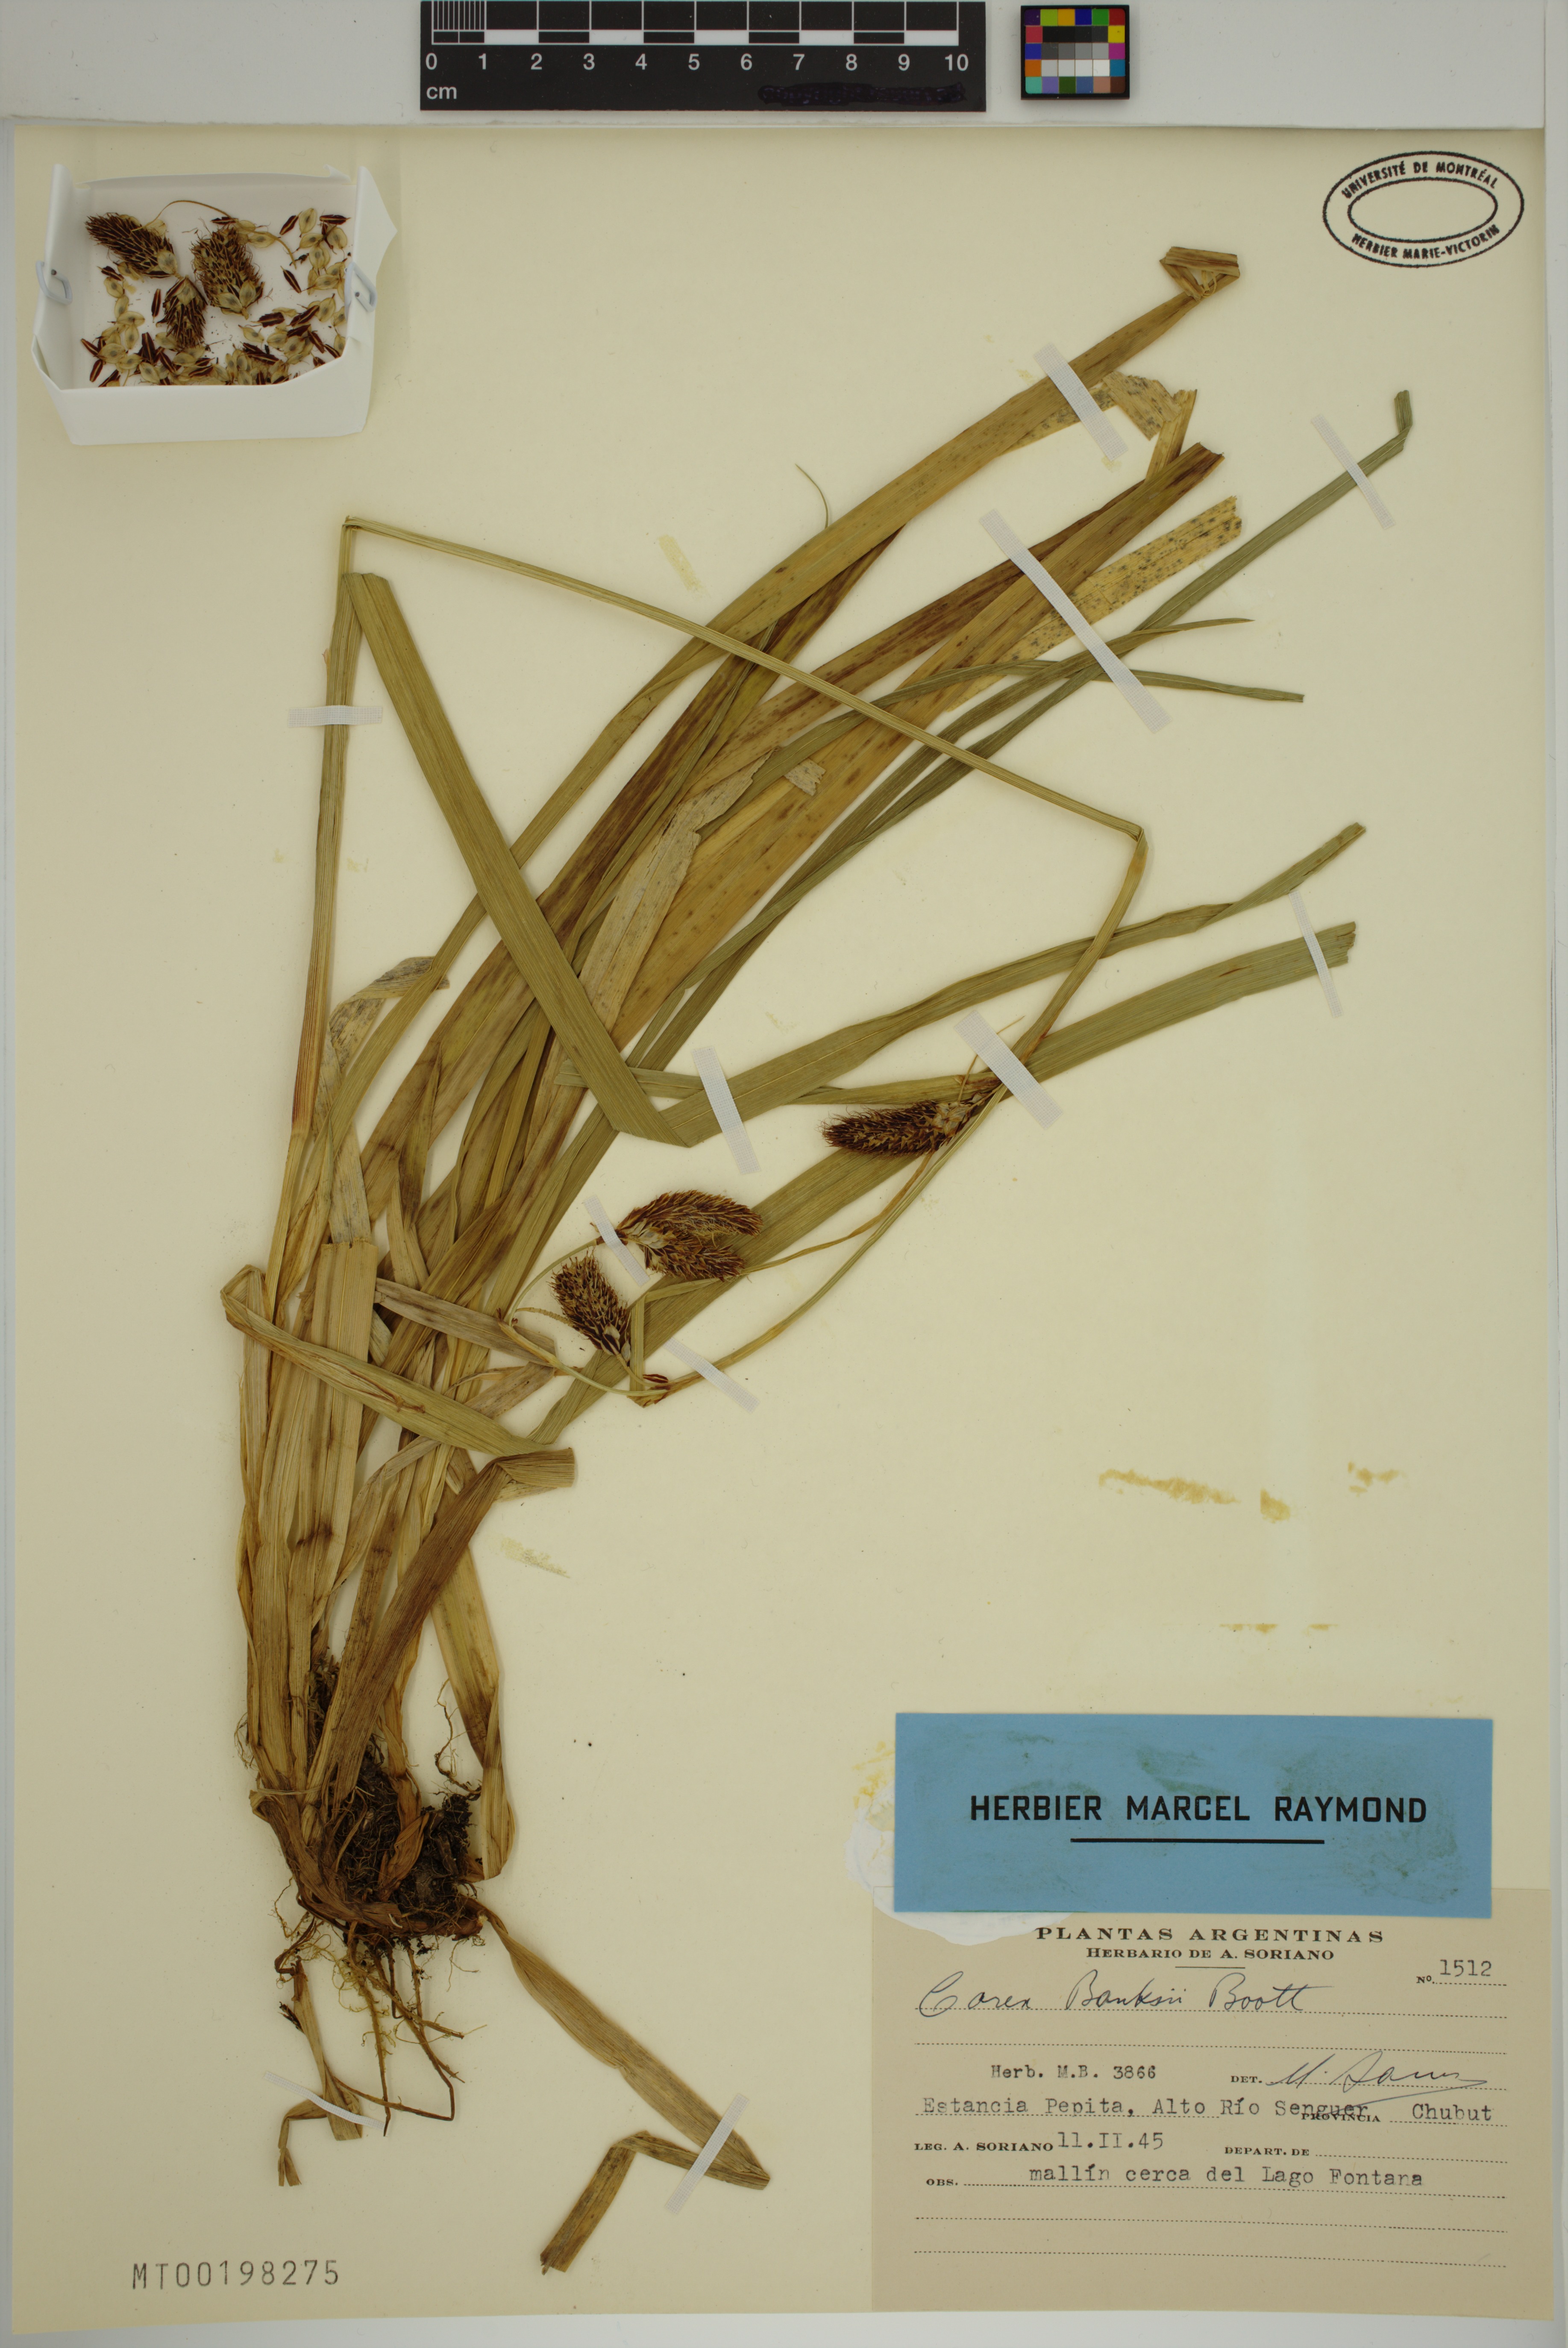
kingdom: Plantae
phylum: Tracheophyta
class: Liliopsida
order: Poales
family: Cyperaceae
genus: Carex
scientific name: Carex banksii
